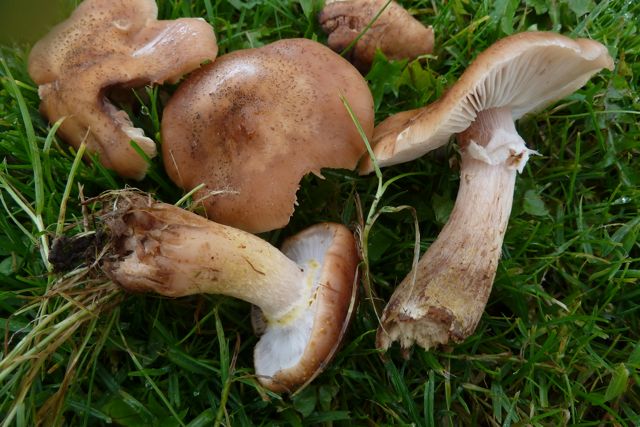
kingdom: Fungi
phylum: Basidiomycota
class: Agaricomycetes
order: Agaricales
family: Physalacriaceae
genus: Armillaria
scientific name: Armillaria lutea
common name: køllestokket honningsvamp
